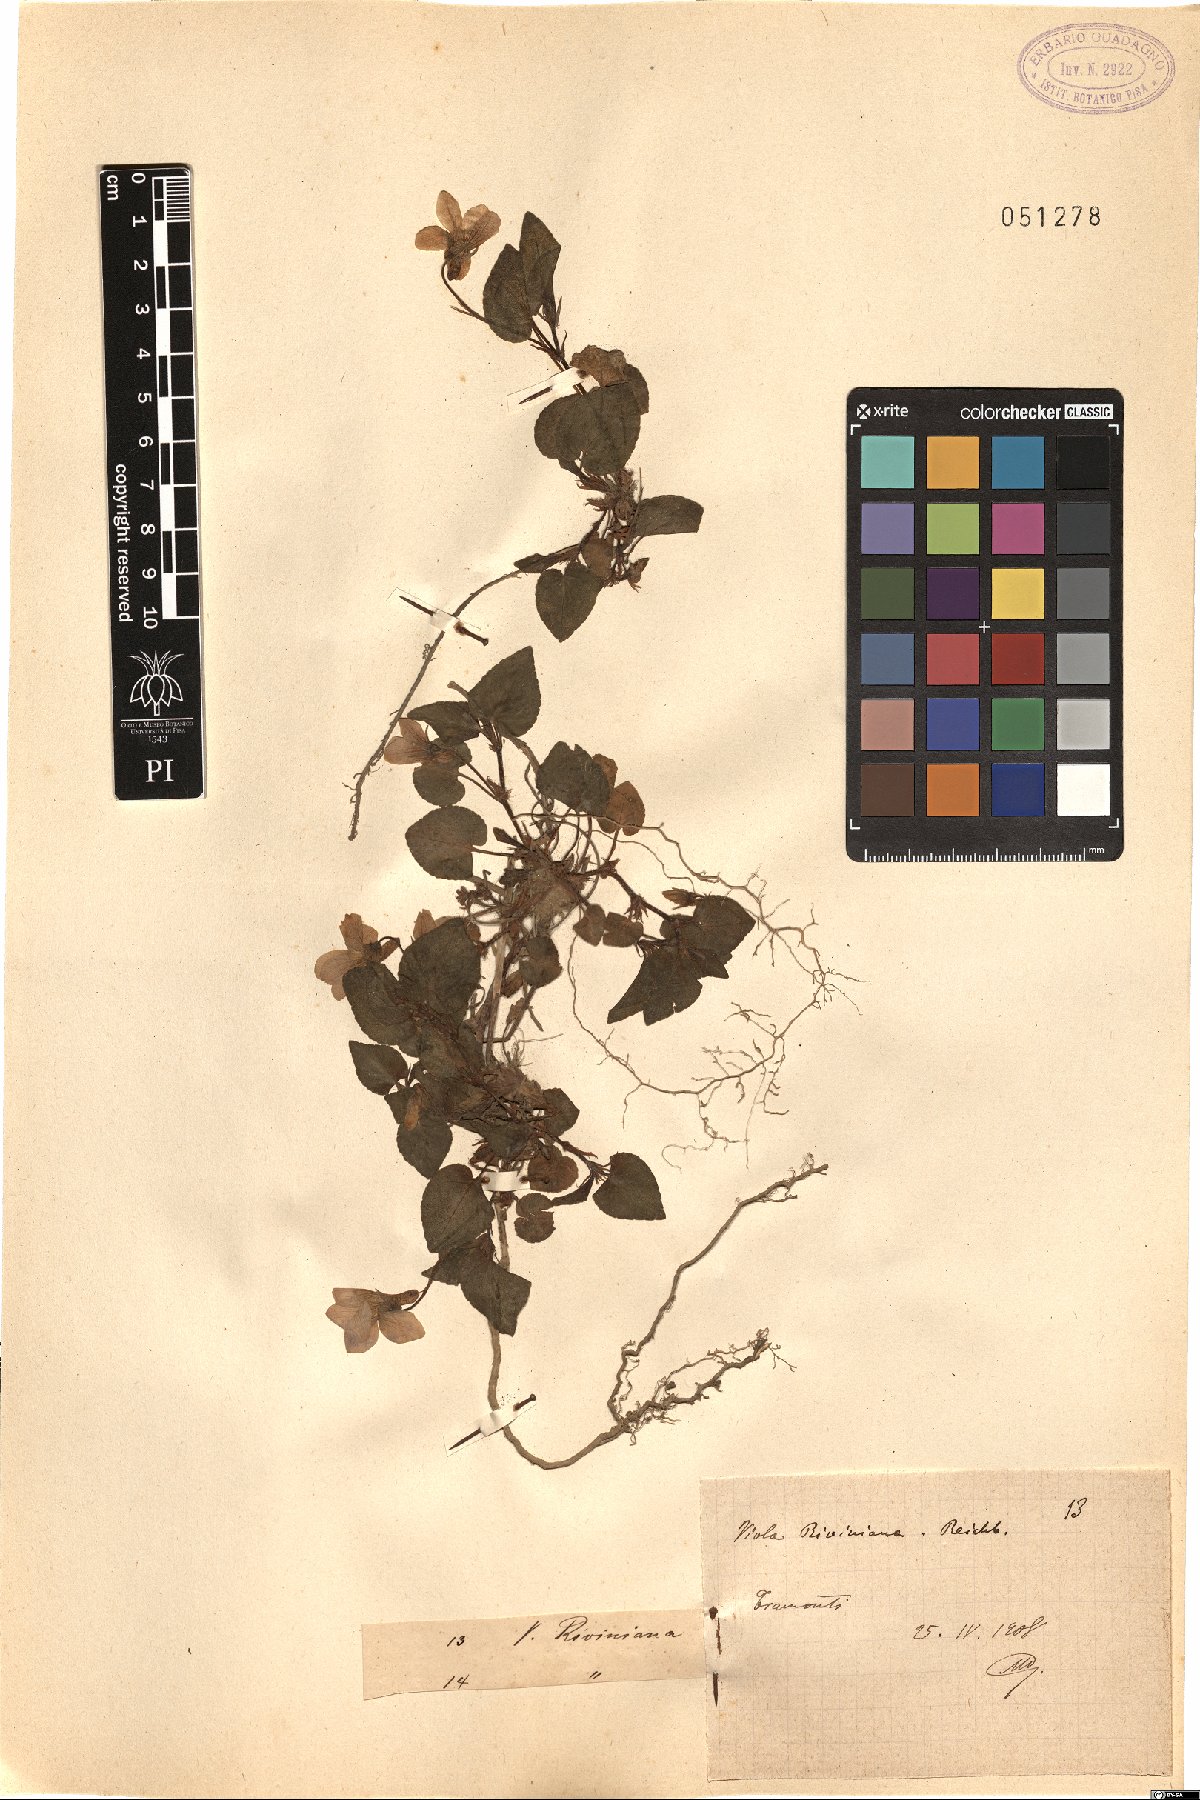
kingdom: Plantae
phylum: Tracheophyta
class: Magnoliopsida
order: Malpighiales
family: Violaceae
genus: Viola
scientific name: Viola riviniana
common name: Common dog-violet
